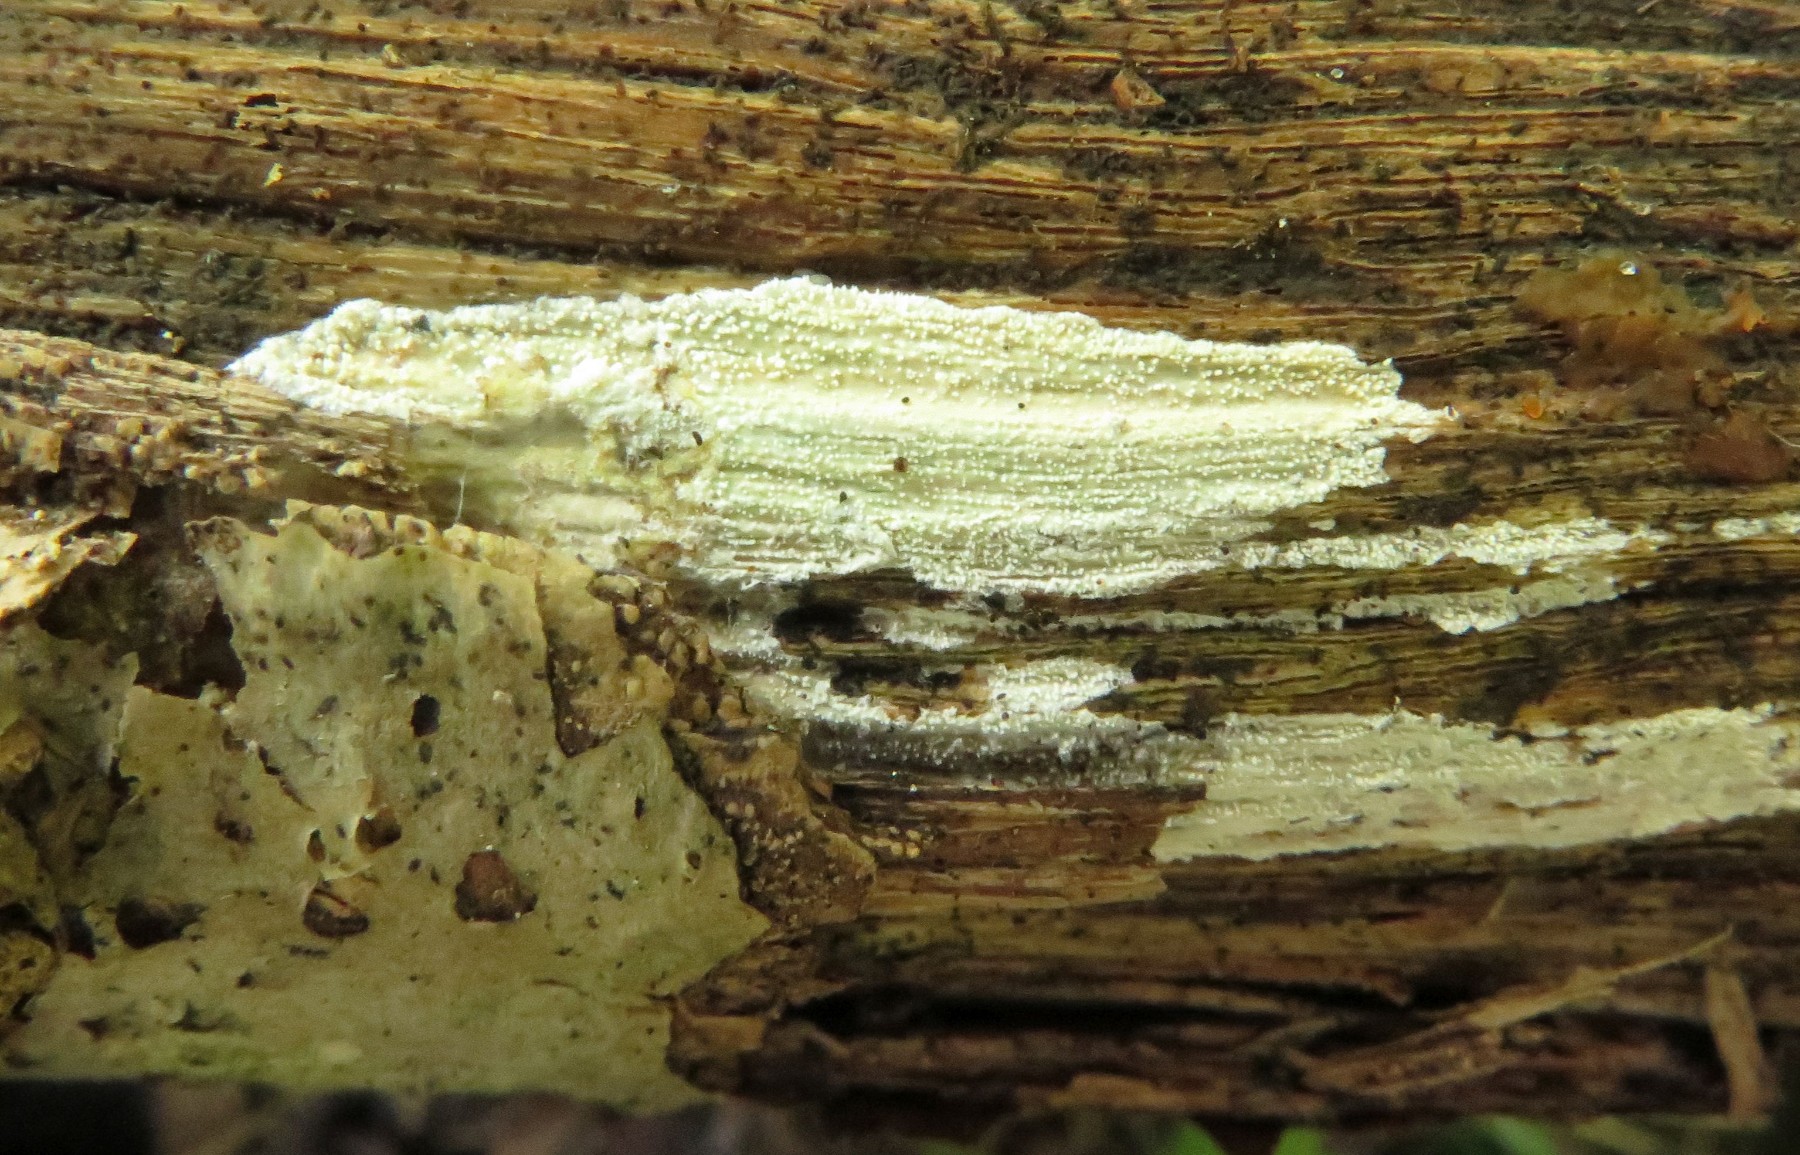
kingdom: Fungi
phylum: Basidiomycota
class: Agaricomycetes
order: Hymenochaetales
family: Schizoporaceae
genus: Xylodon
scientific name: Xylodon asper
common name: fjern tandsvamp
